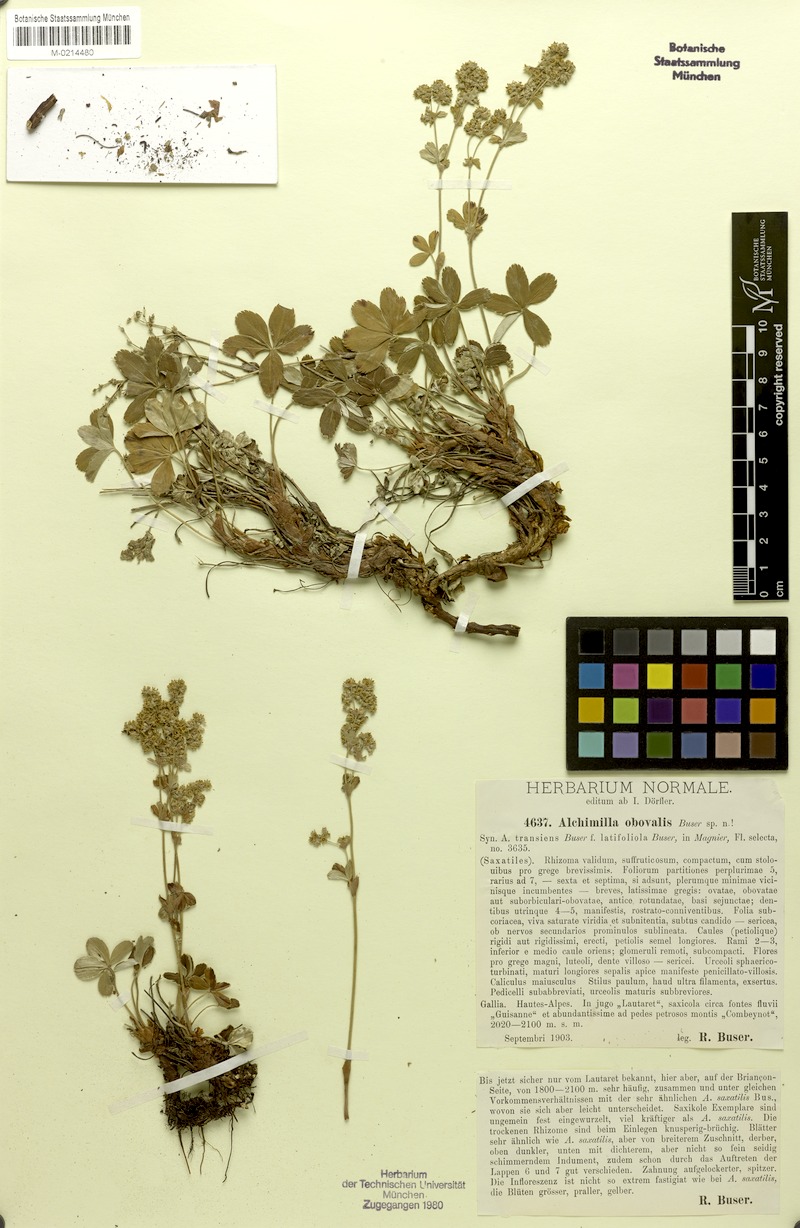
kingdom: Plantae
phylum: Tracheophyta
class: Magnoliopsida
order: Rosales
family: Rosaceae
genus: Alchemilla
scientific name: Alchemilla transiens
